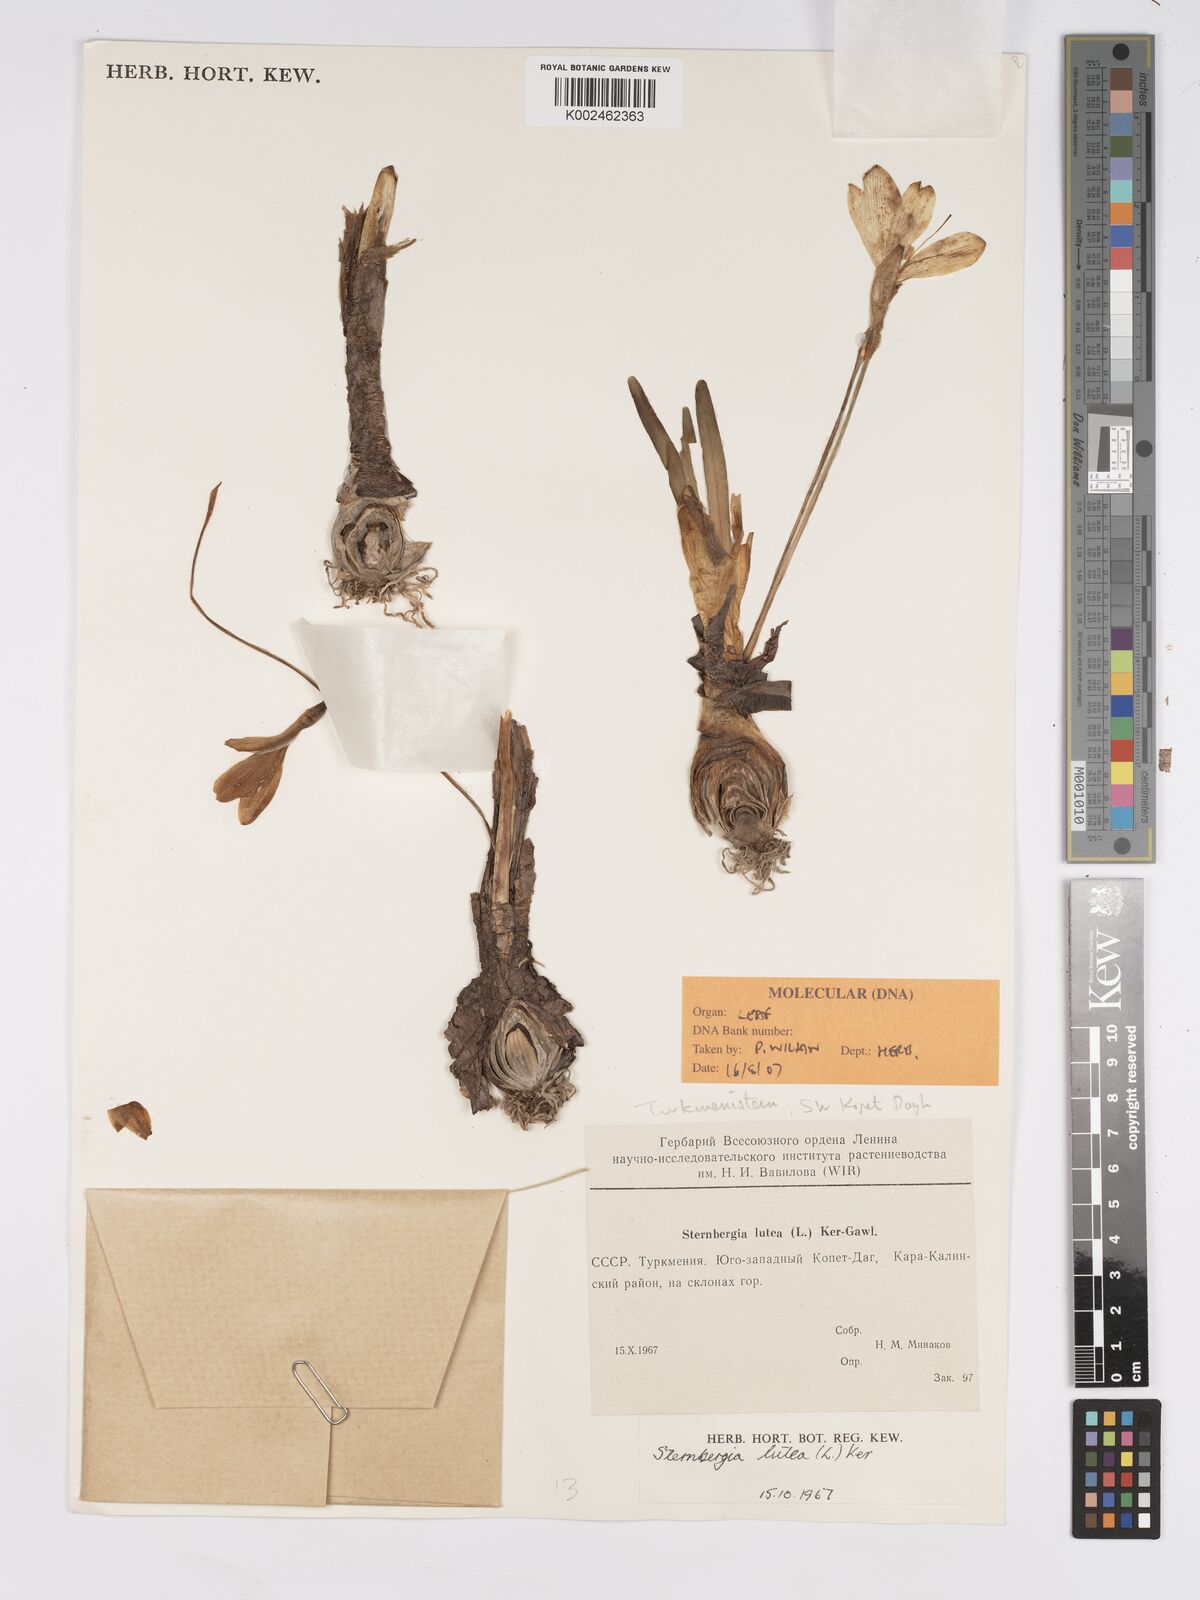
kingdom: Plantae
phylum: Tracheophyta
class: Liliopsida
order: Asparagales
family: Amaryllidaceae
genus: Sternbergia
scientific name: Sternbergia lutea
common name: Winter daffodil
